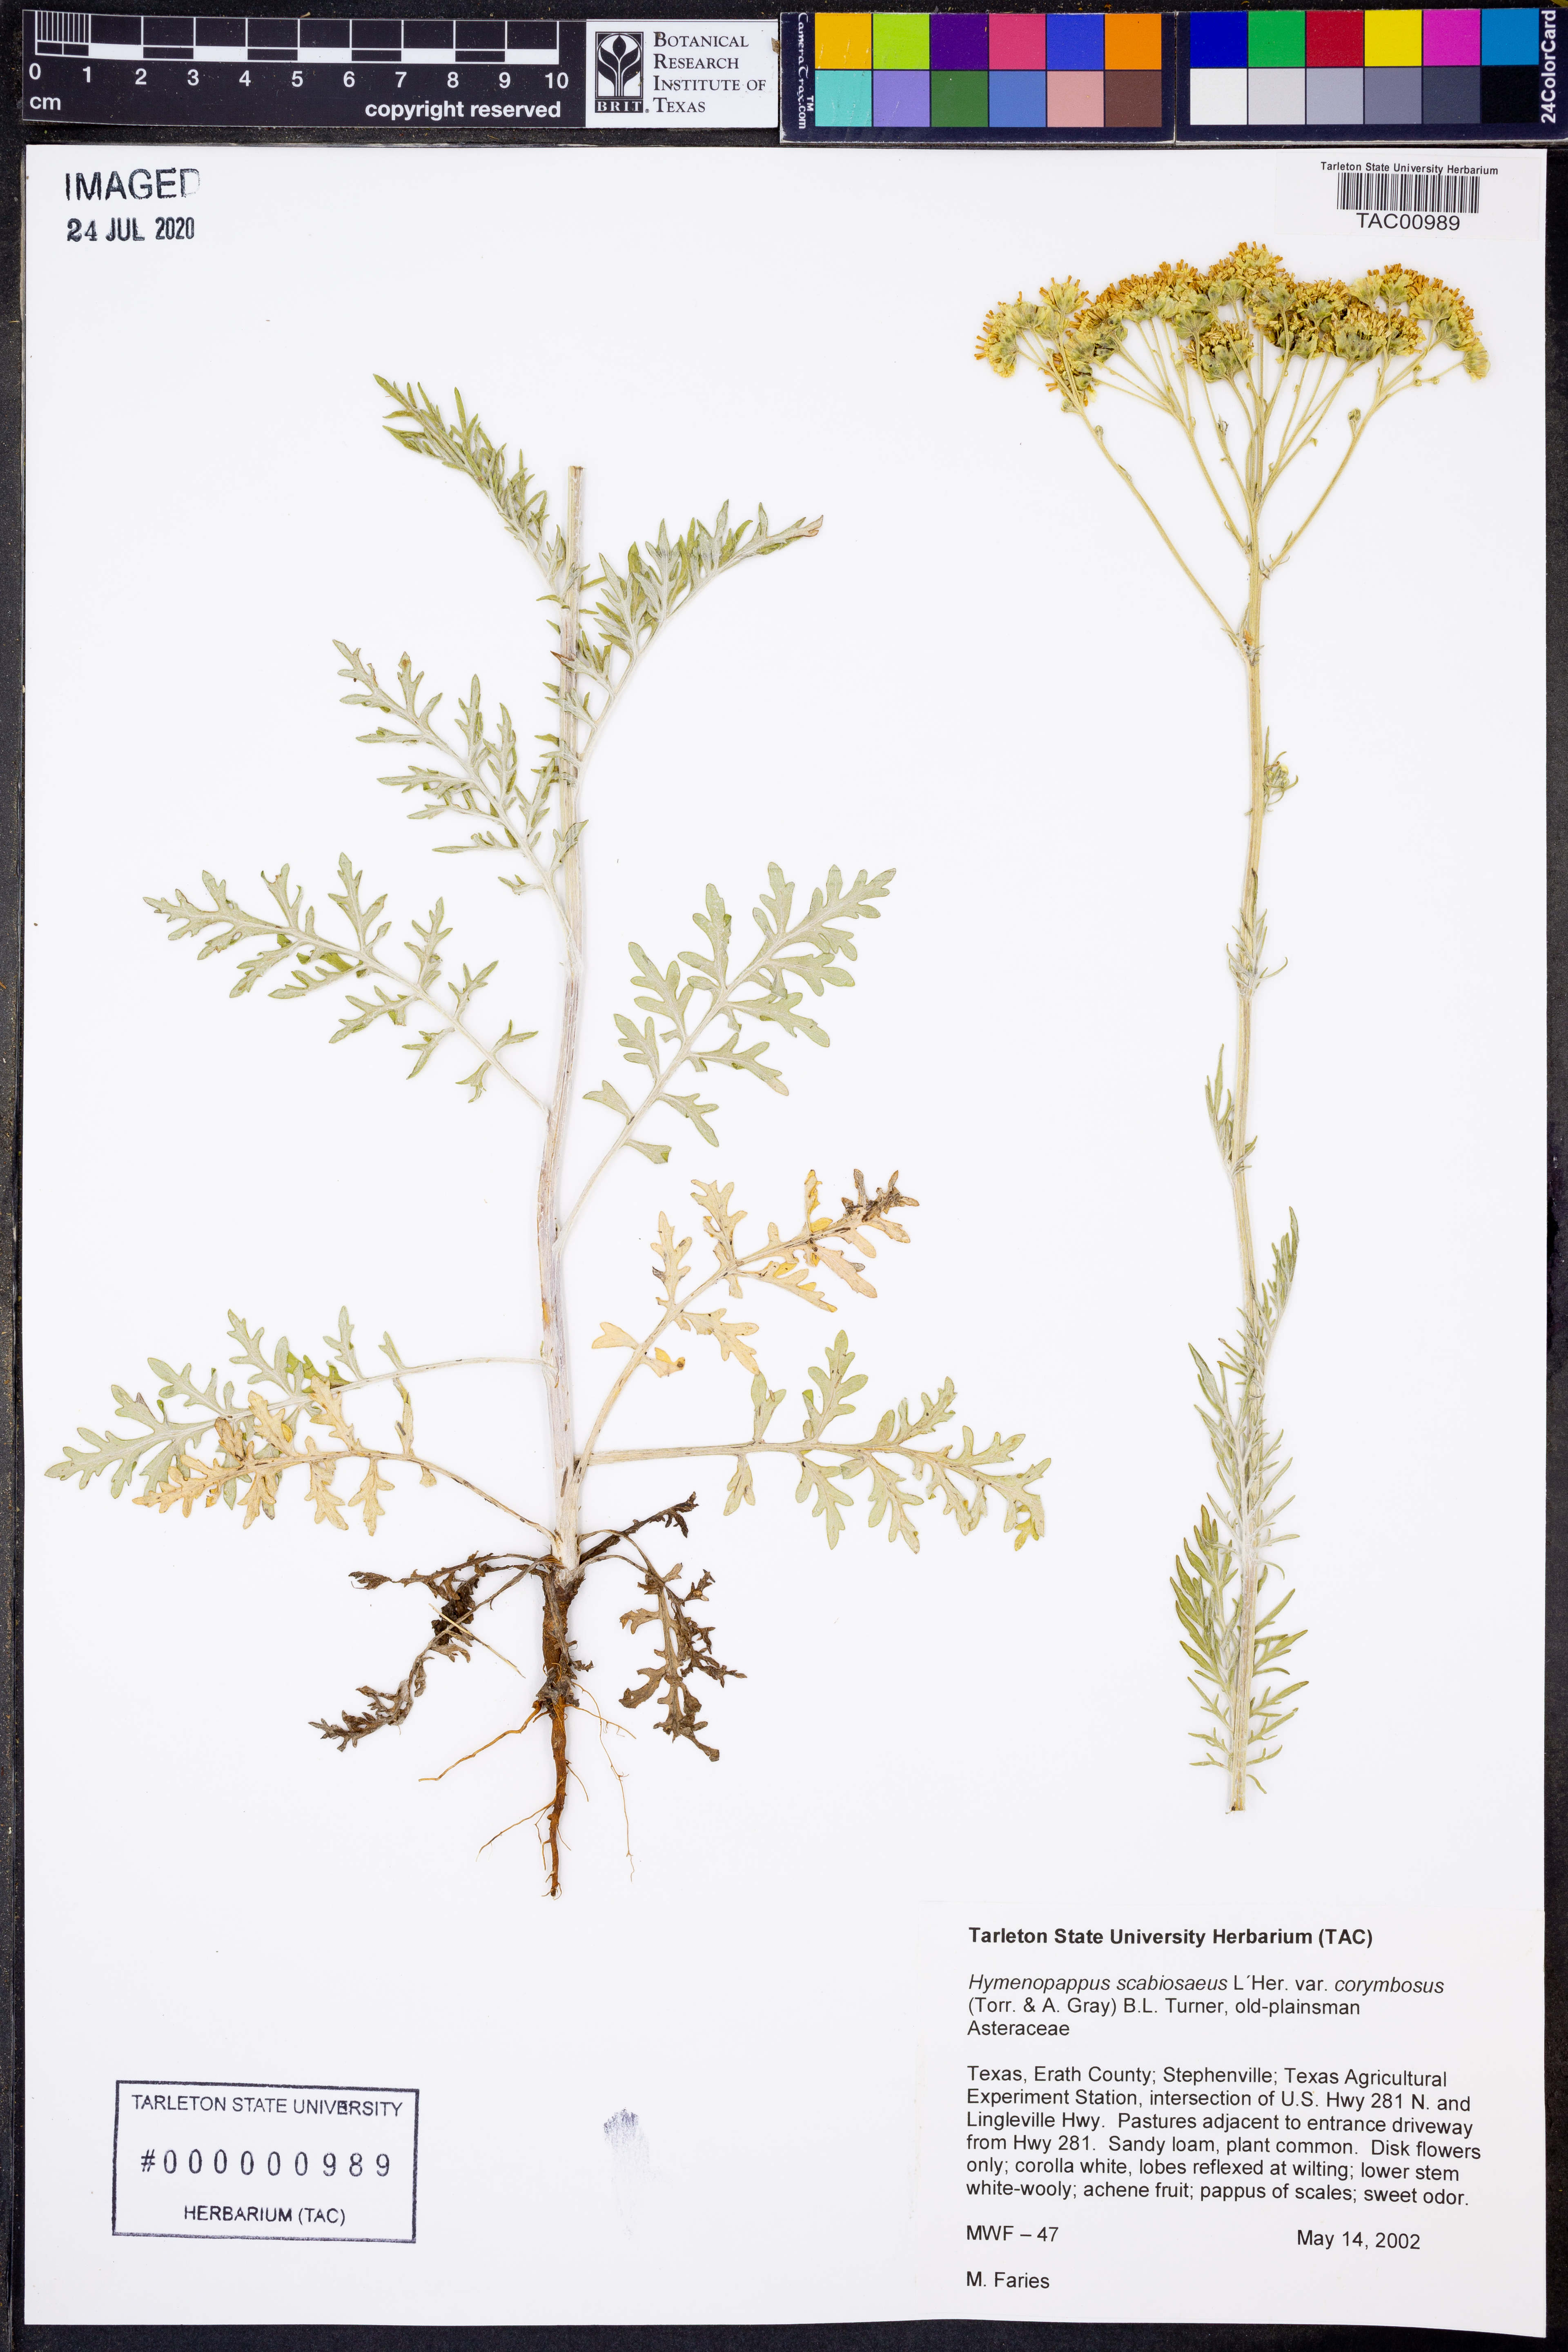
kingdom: Plantae
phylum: Tracheophyta
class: Magnoliopsida
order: Asterales
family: Asteraceae
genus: Hymenopappus
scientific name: Hymenopappus scabiosaeus
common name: Carolina woollywhite
